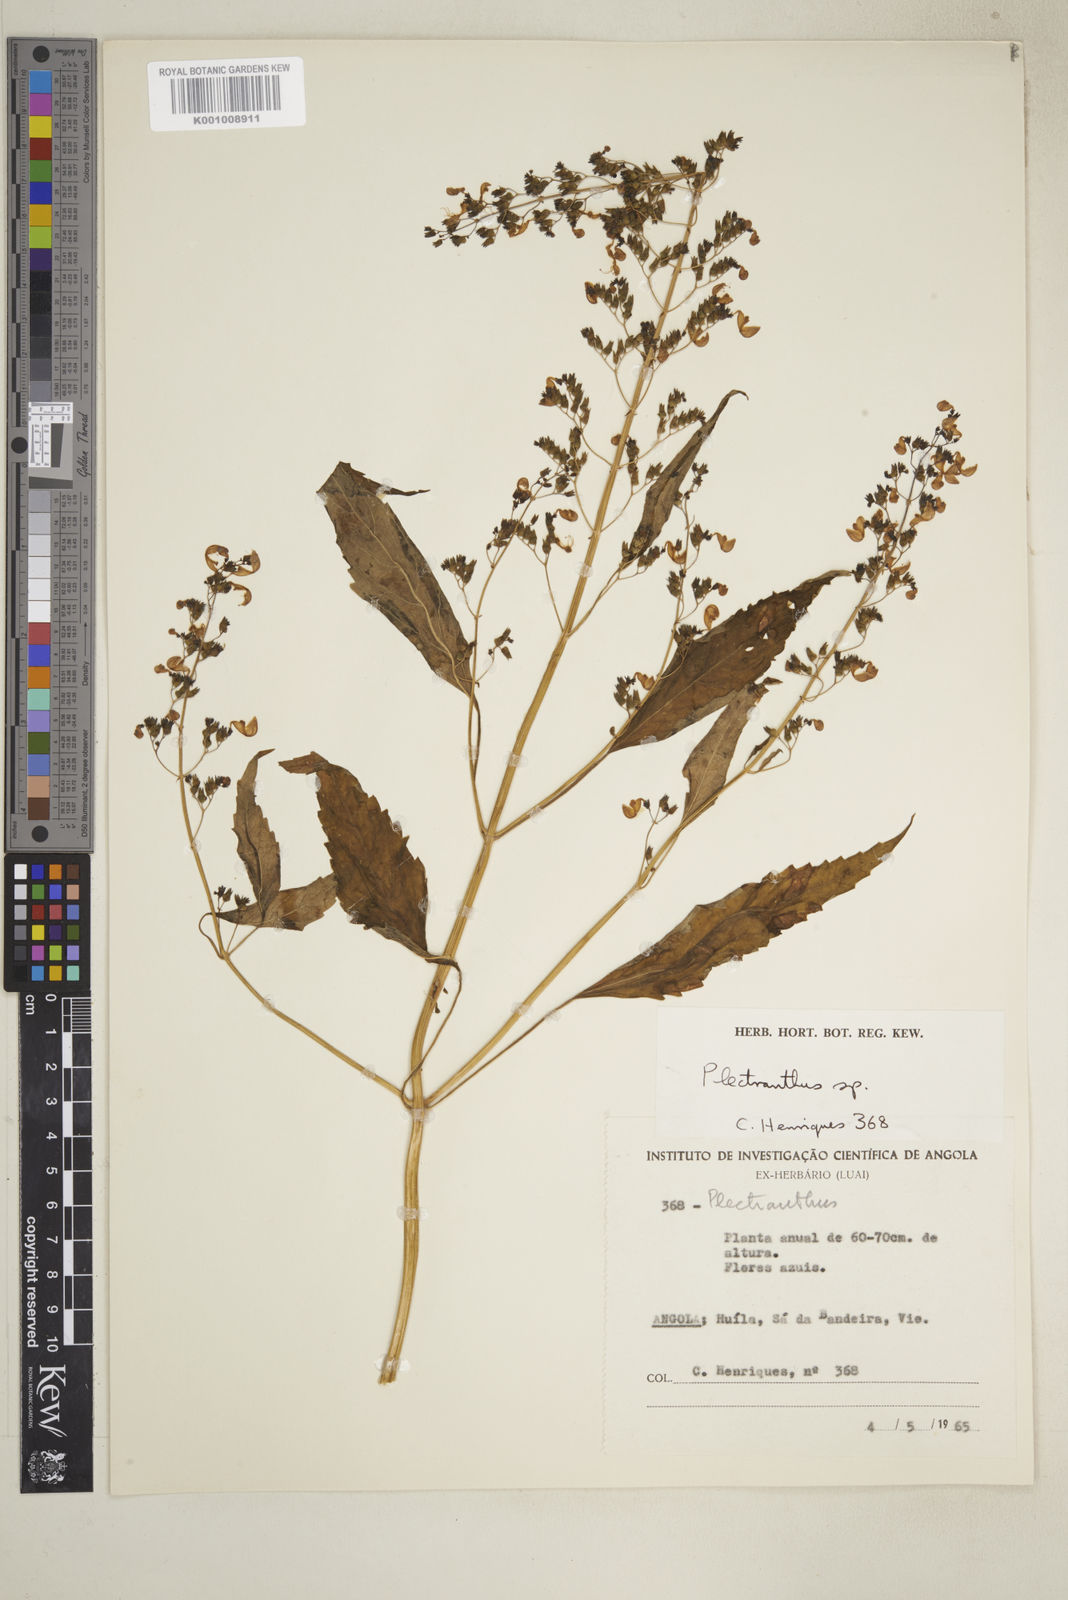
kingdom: Plantae
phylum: Tracheophyta
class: Magnoliopsida
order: Lamiales
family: Lamiaceae
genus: Coleus
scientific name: Coleus hereroensis
